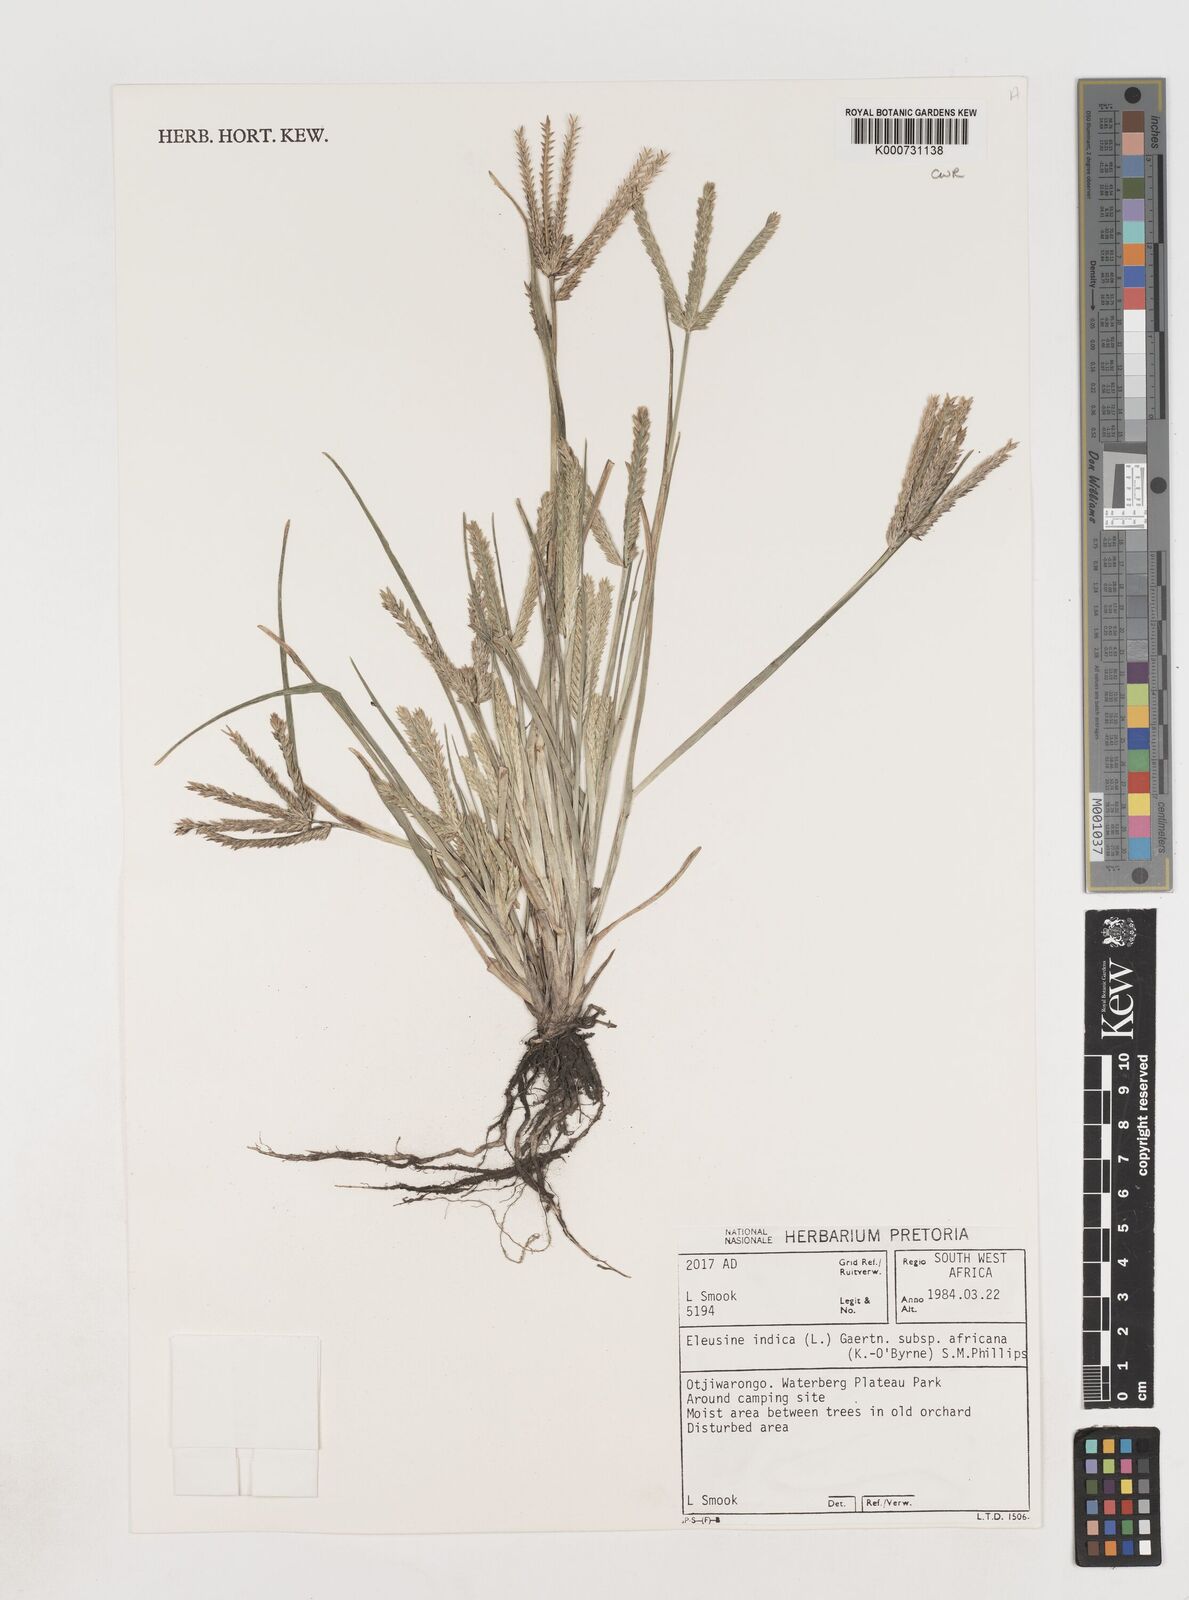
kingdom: Plantae
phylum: Tracheophyta
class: Liliopsida
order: Poales
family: Poaceae
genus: Eleusine
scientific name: Eleusine africana
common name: Wild african finger millet
